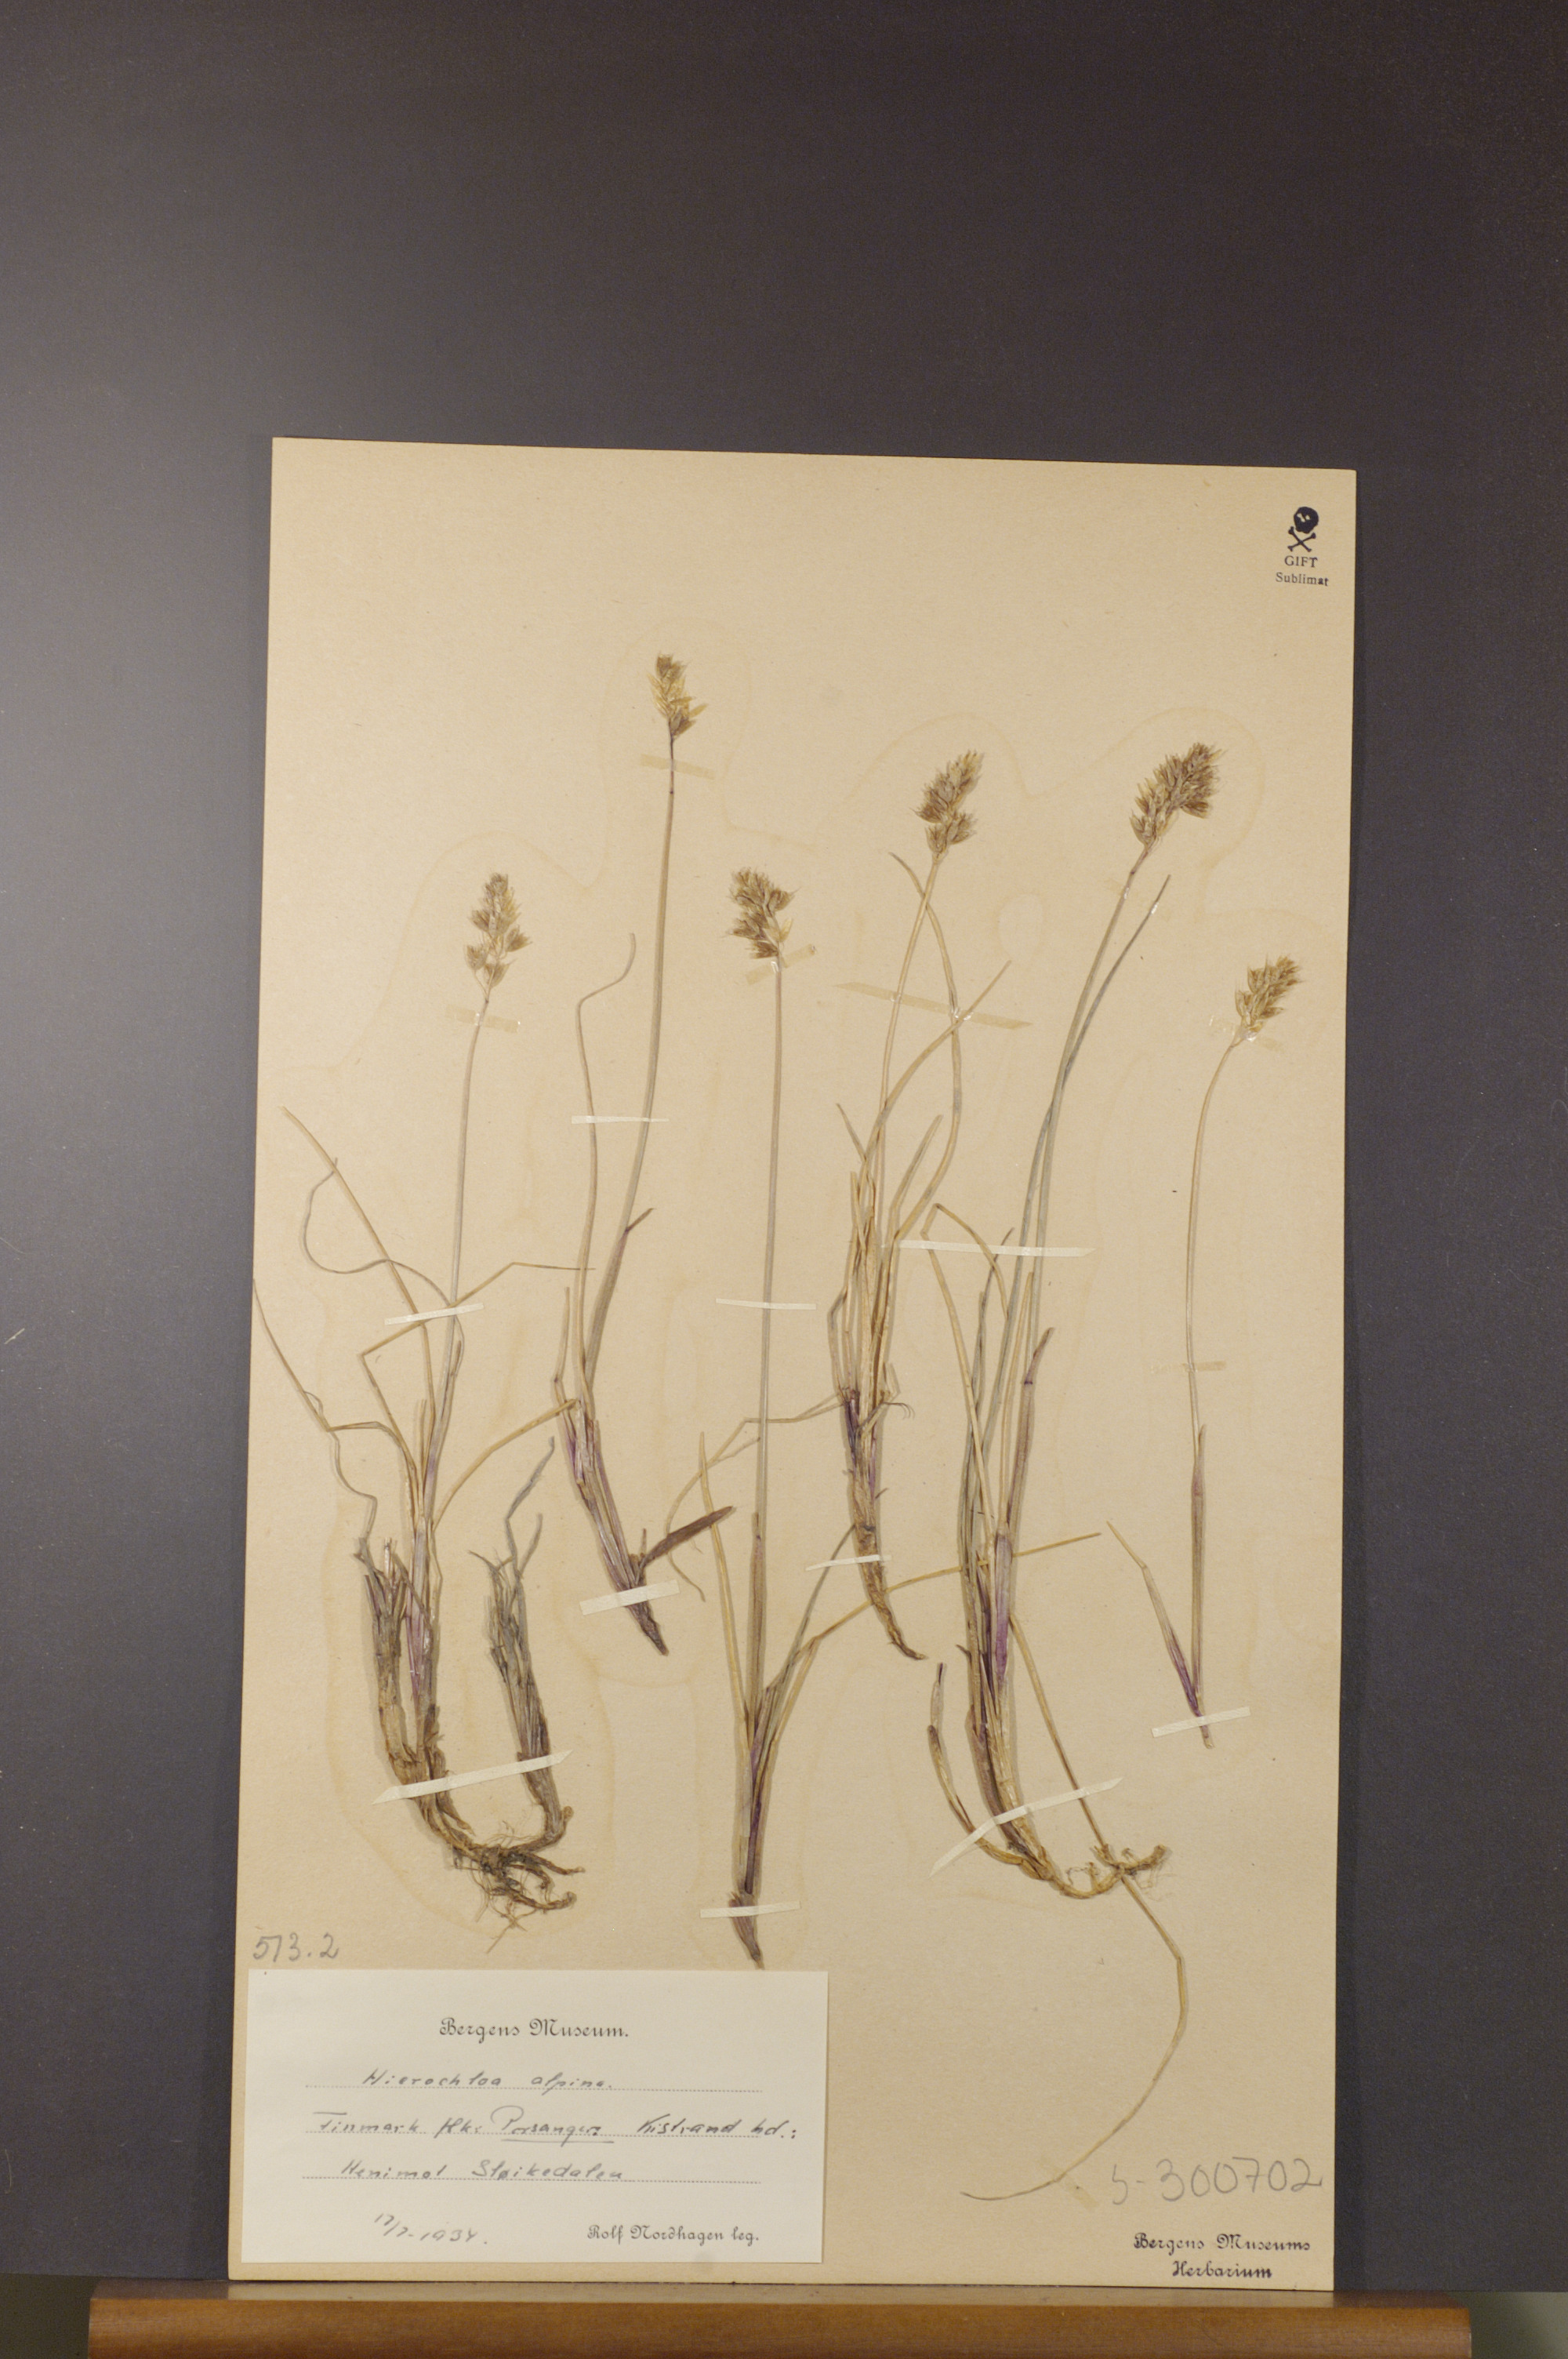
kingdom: Plantae
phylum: Tracheophyta
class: Liliopsida
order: Poales
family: Poaceae
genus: Anthoxanthum
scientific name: Anthoxanthum monticola
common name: Alpine sweetgrass
